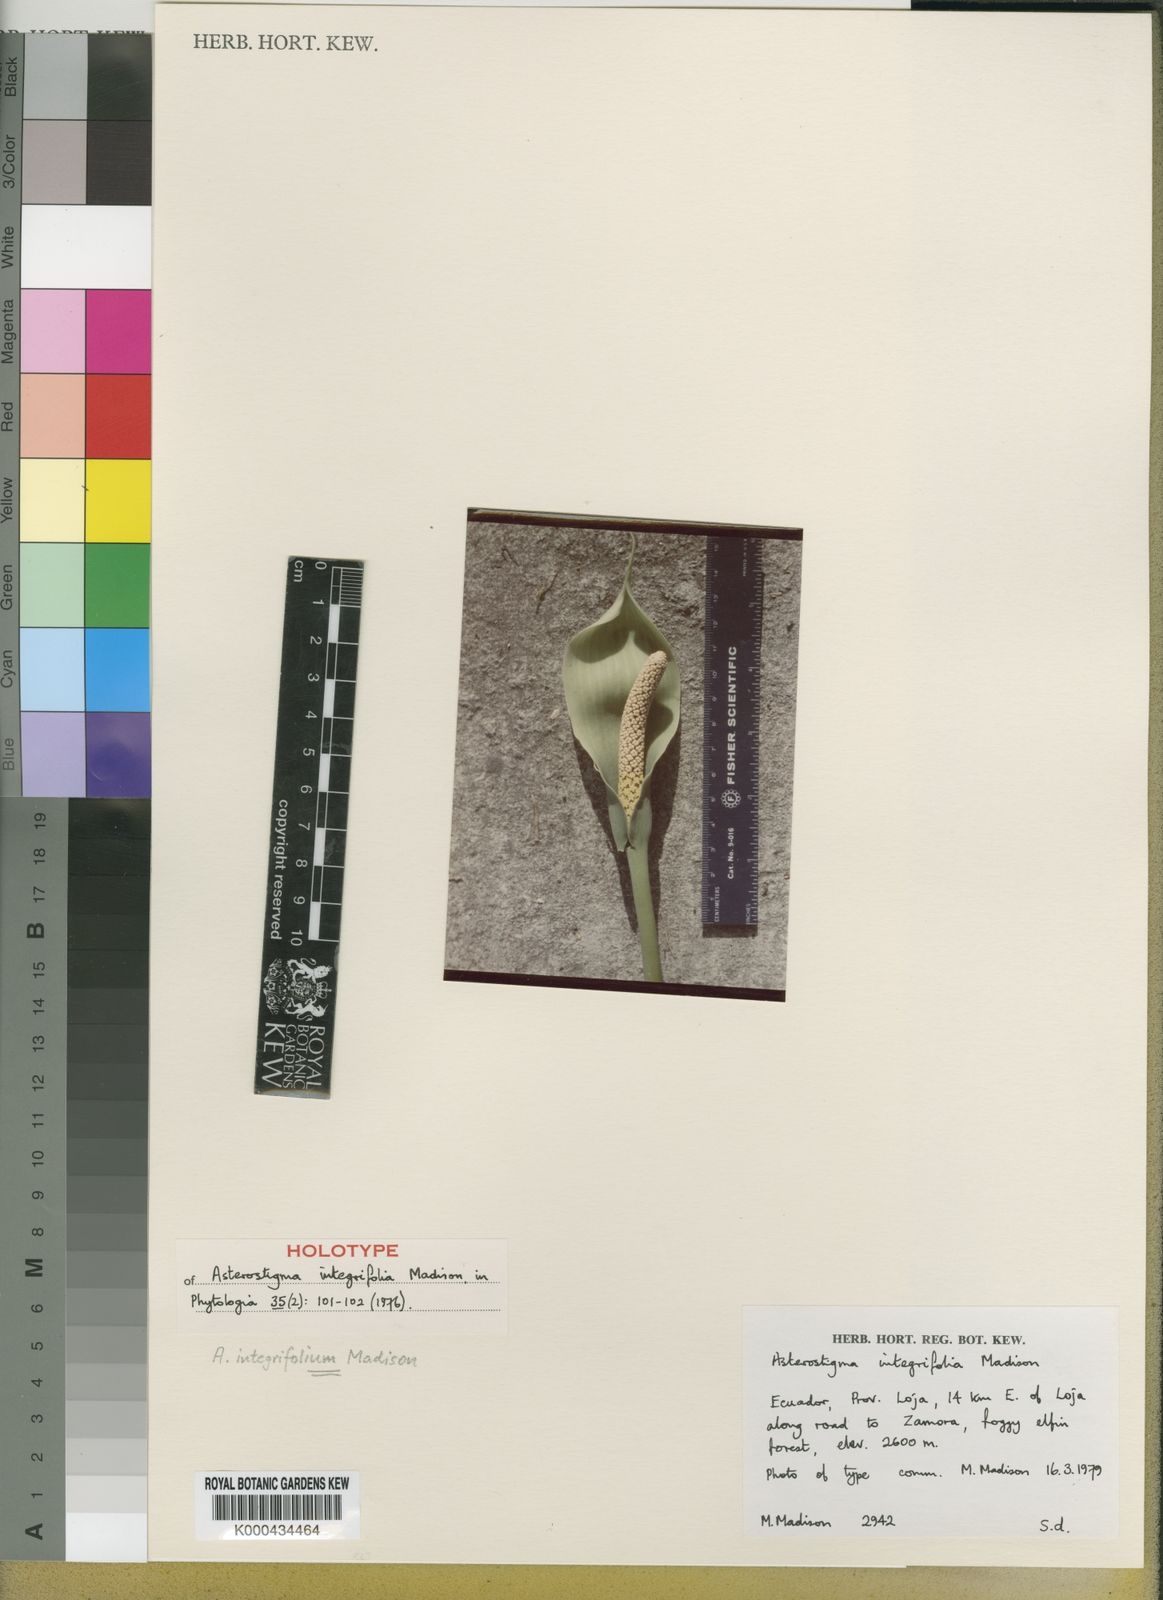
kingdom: Plantae
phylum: Tracheophyta
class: Liliopsida
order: Alismatales
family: Araceae
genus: Croatiella
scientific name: Croatiella integrifolia
